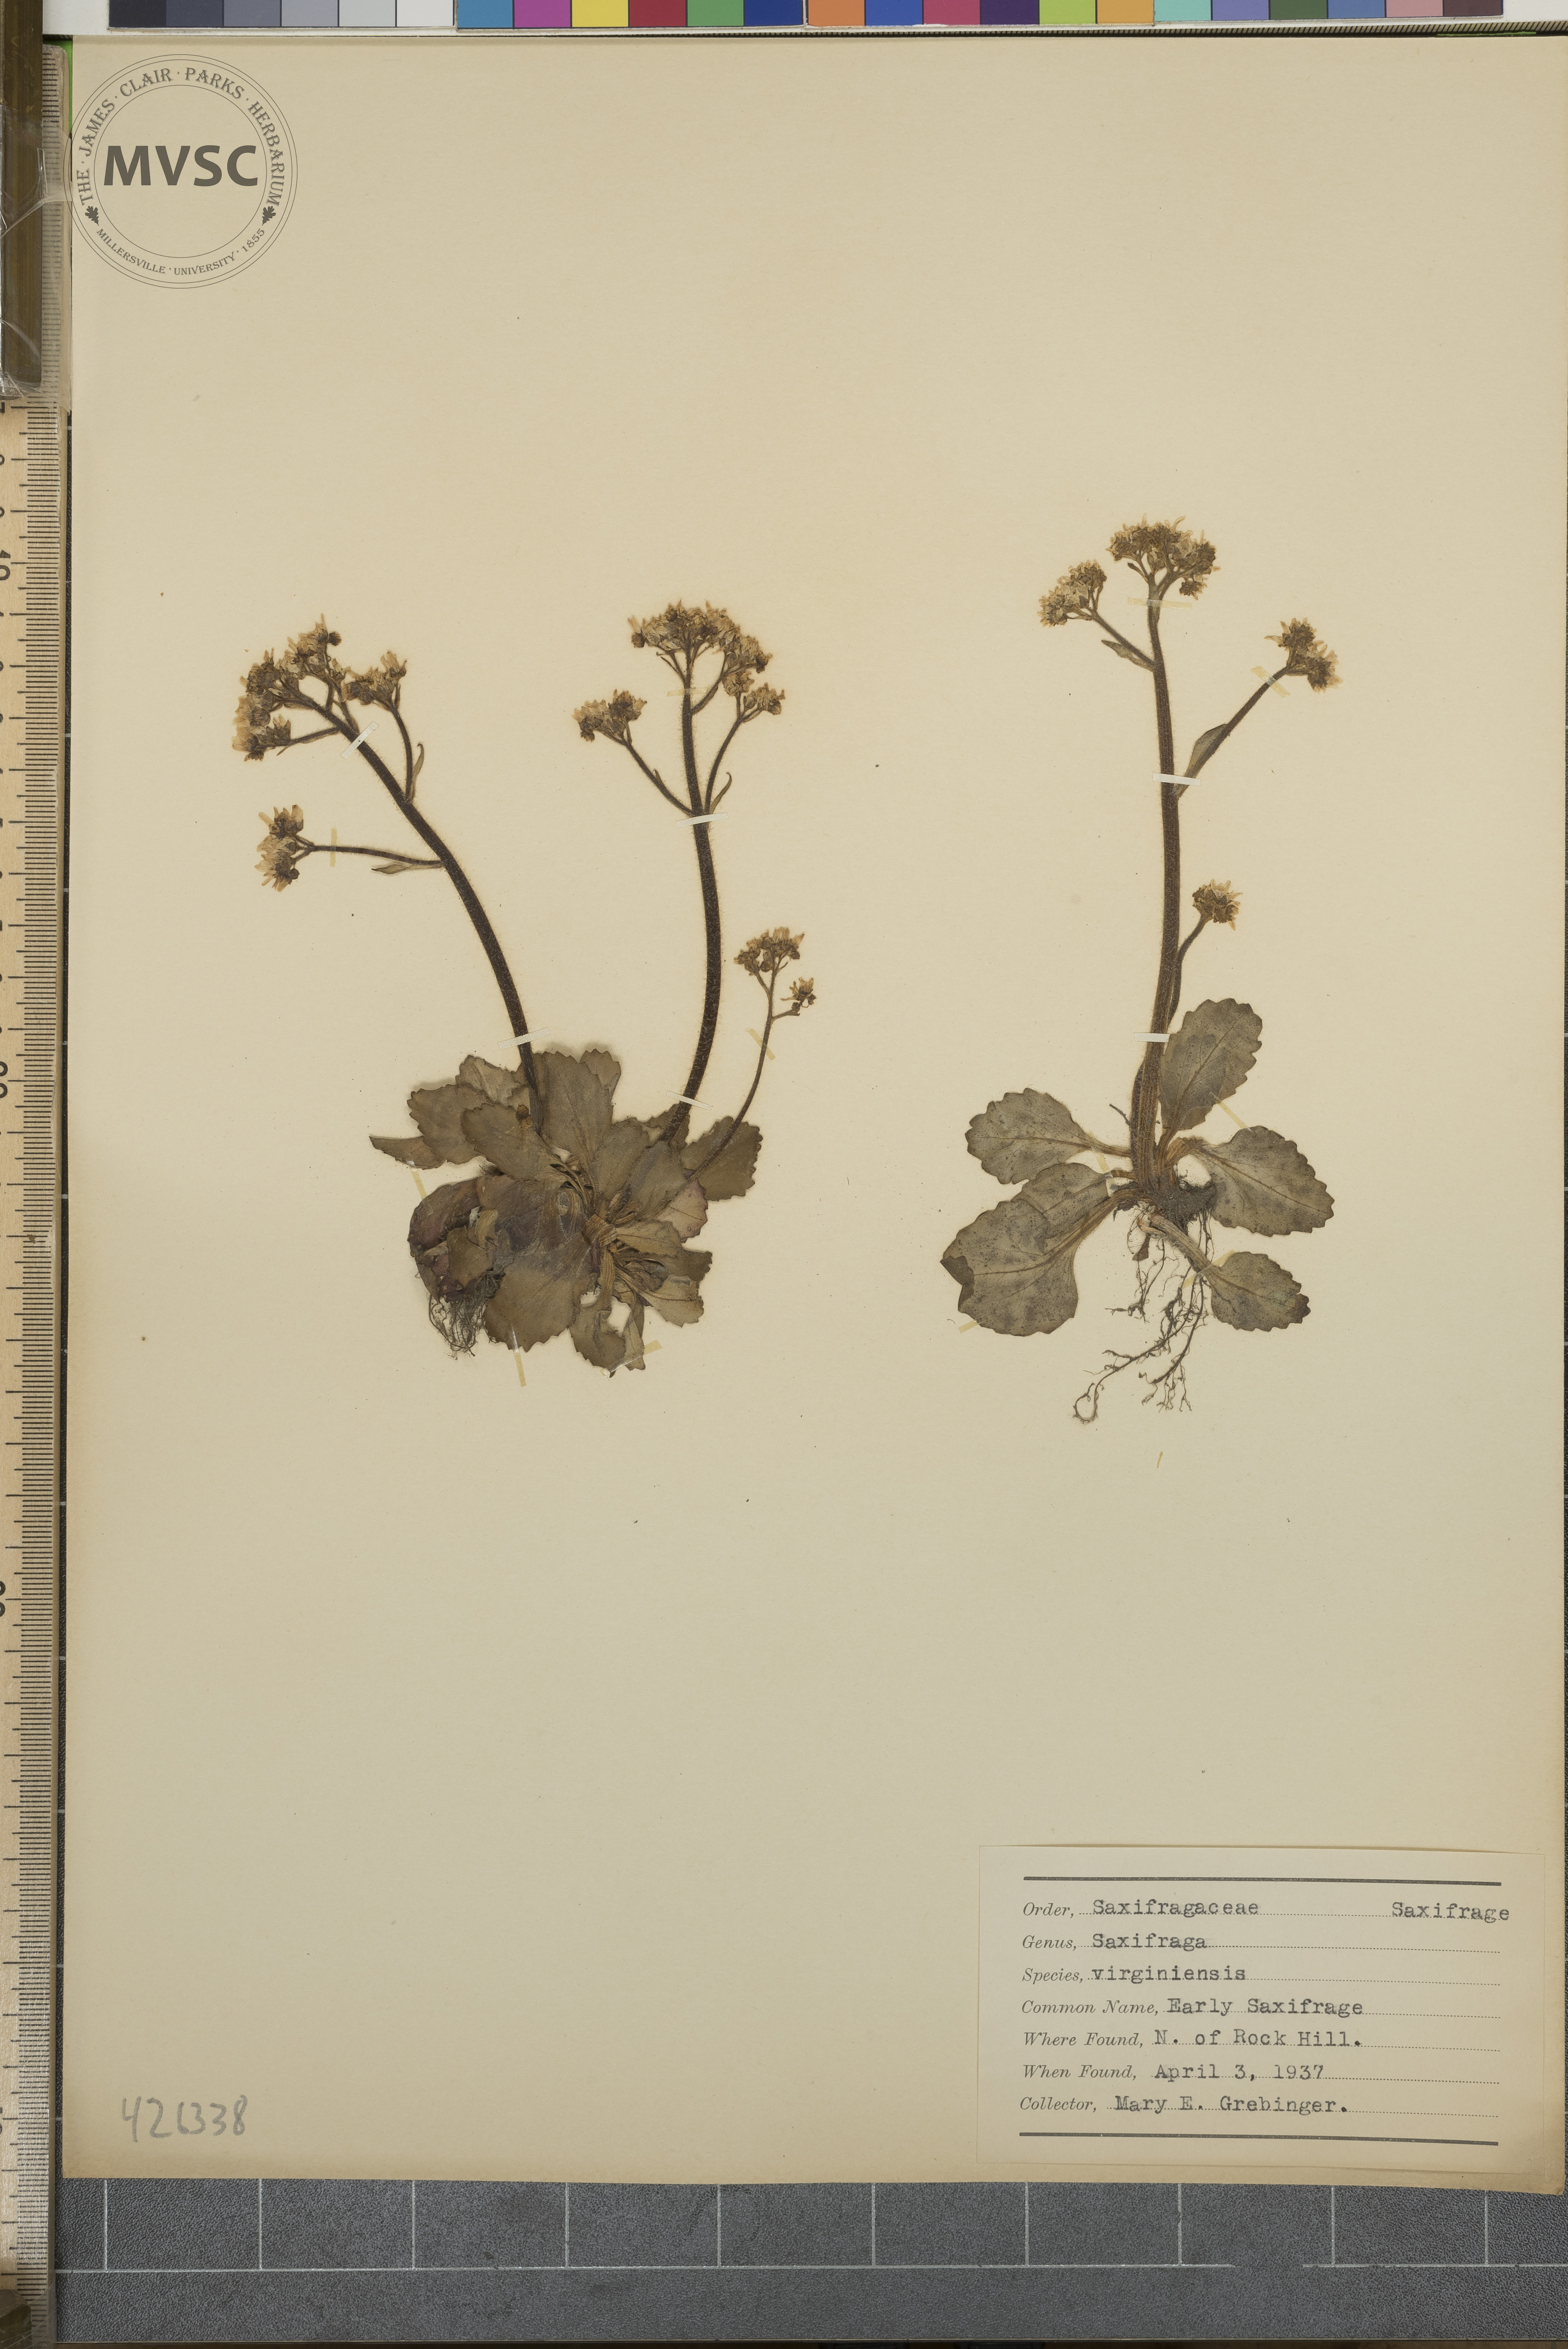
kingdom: Plantae
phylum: Tracheophyta
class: Magnoliopsida
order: Saxifragales
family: Saxifragaceae
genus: Micranthes
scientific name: Micranthes virginiensis
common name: Early Saxifrage
